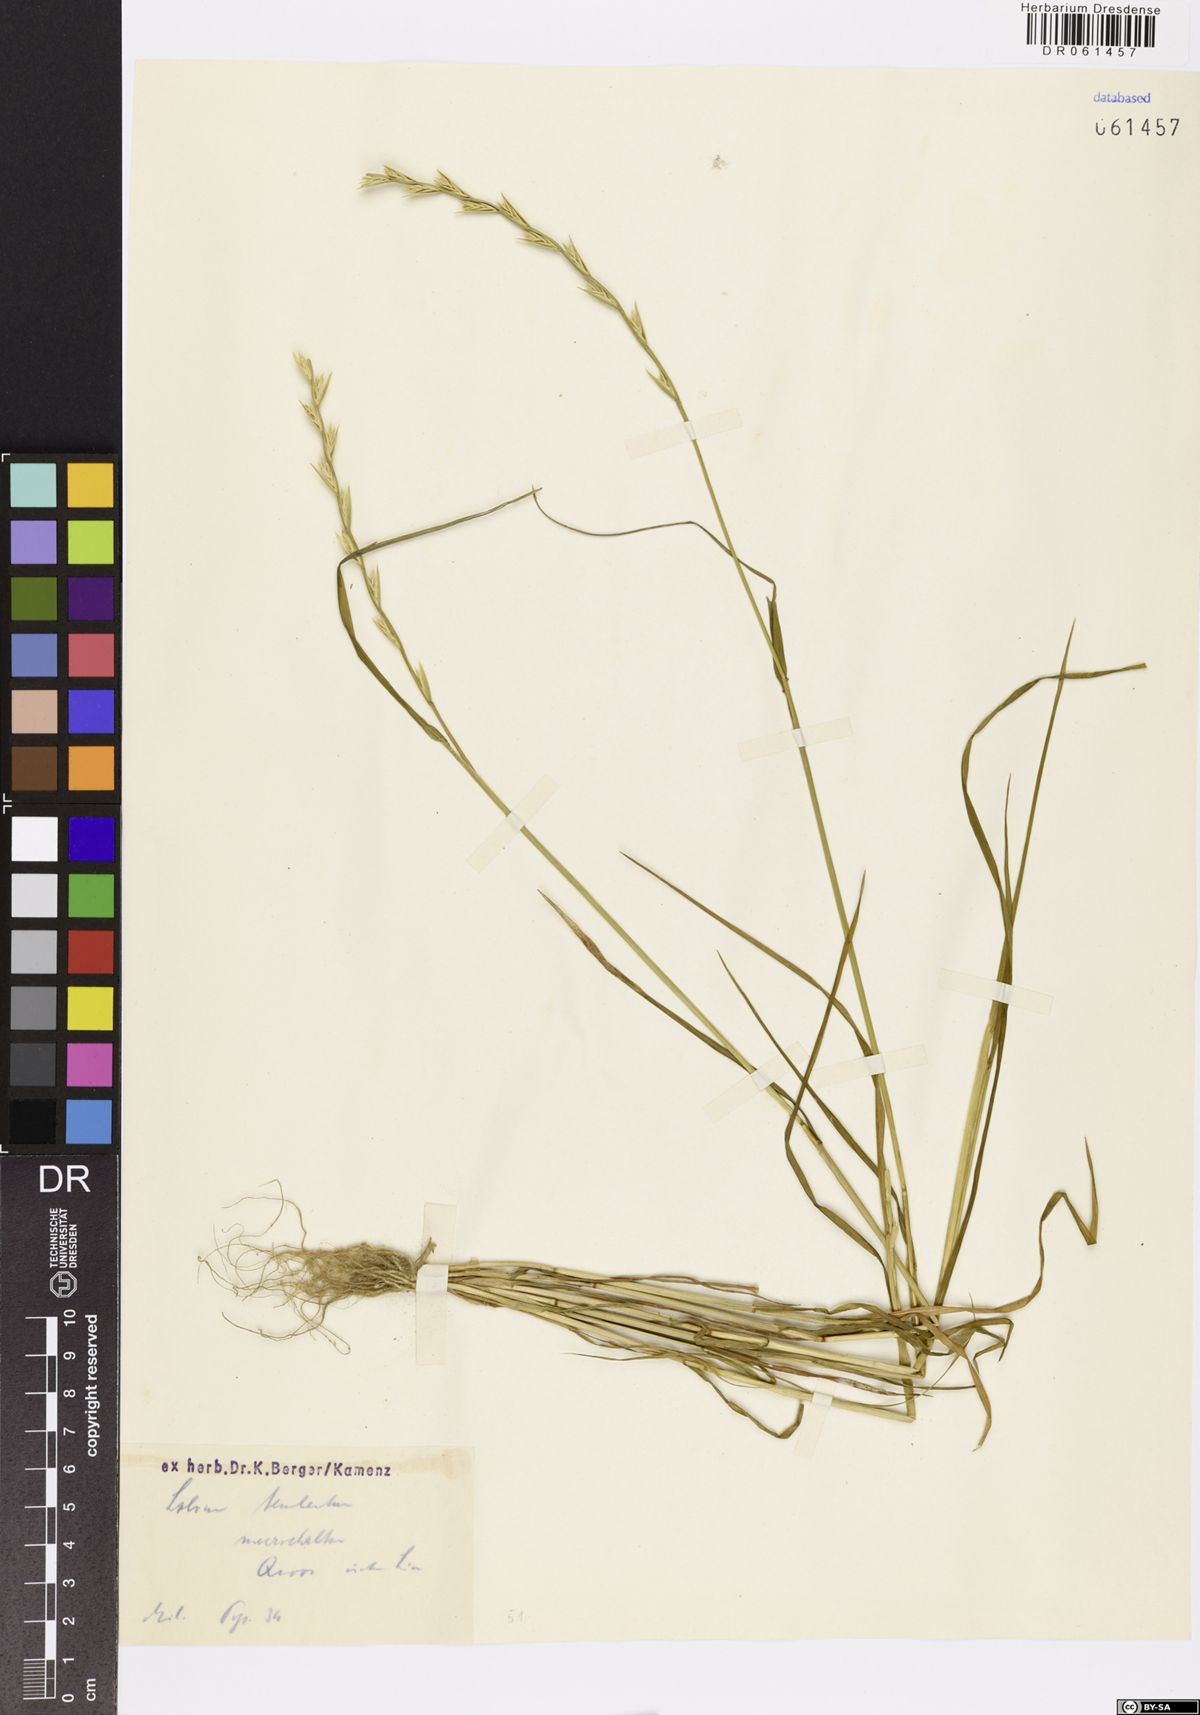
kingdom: Plantae
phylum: Tracheophyta
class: Liliopsida
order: Poales
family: Poaceae
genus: Lolium
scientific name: Lolium temulentum
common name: Darnel
